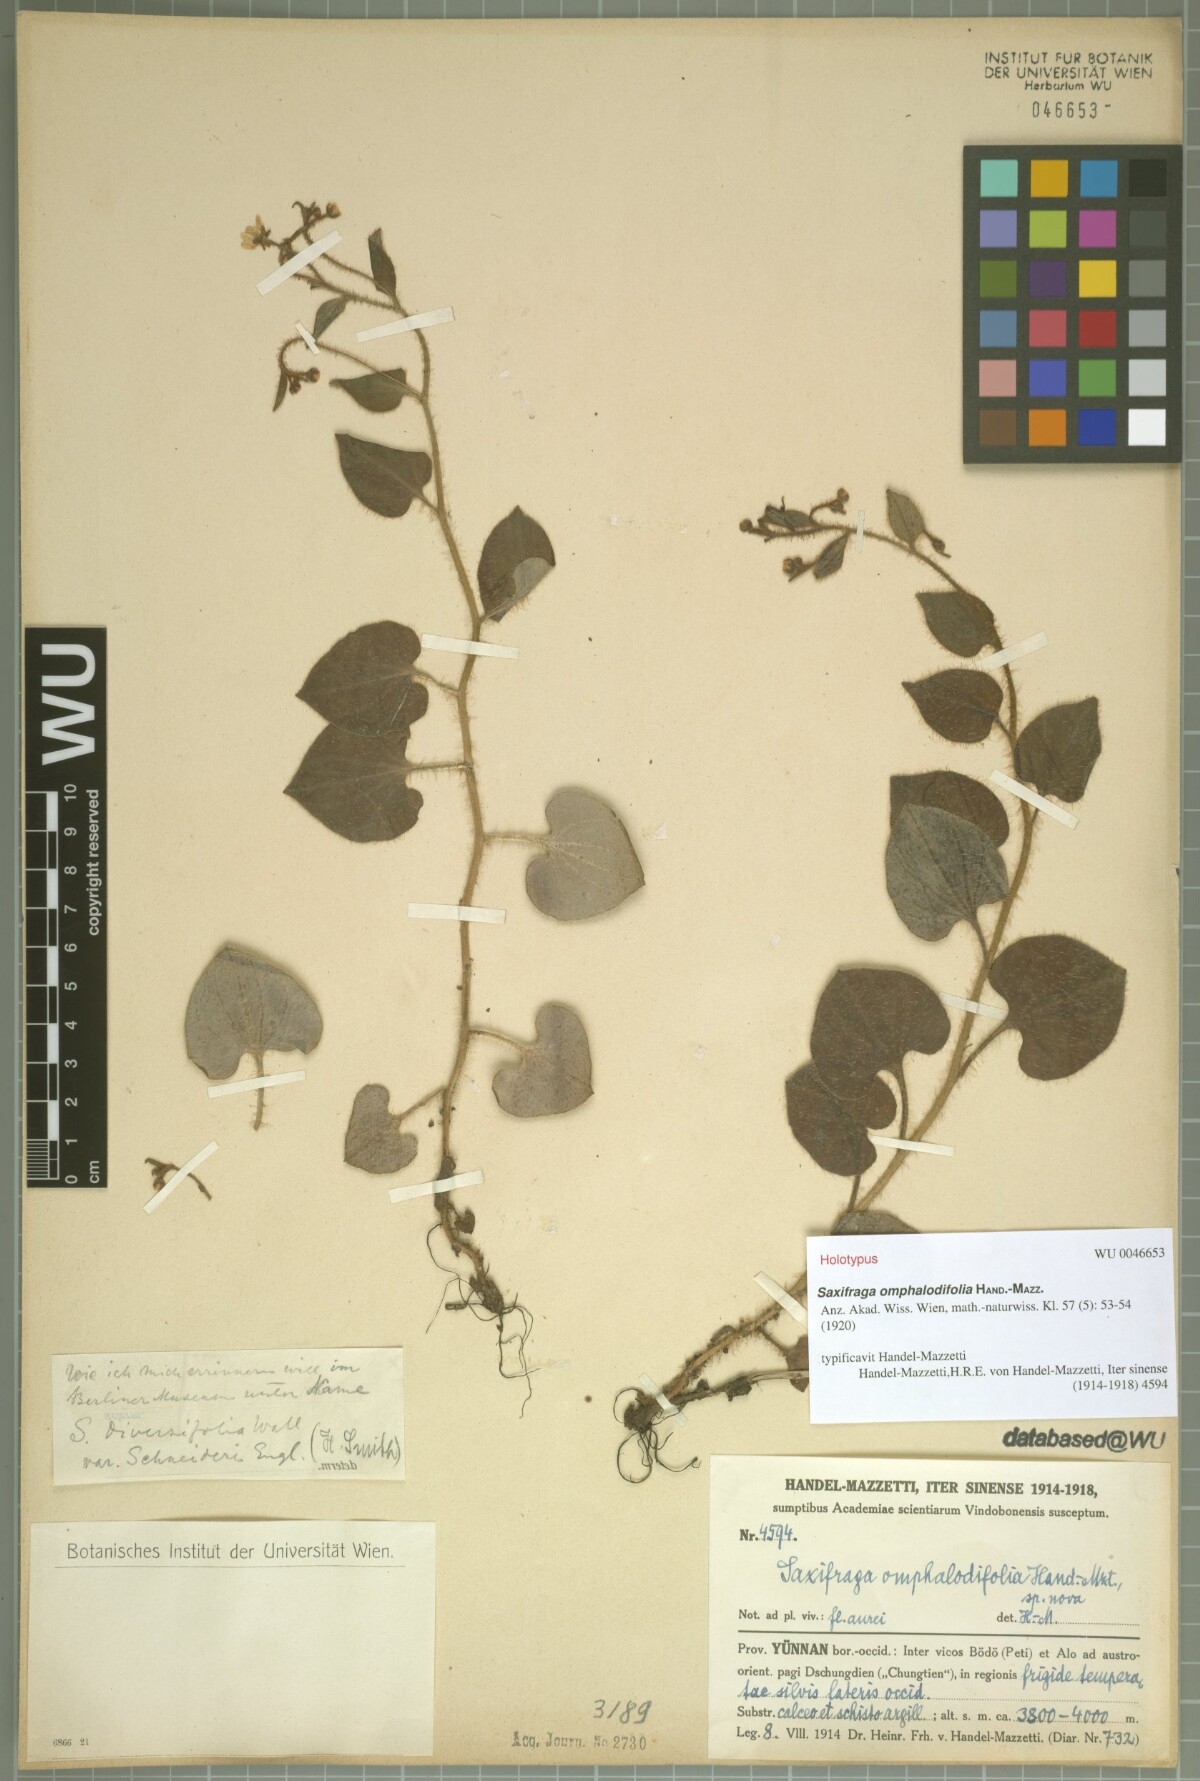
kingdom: Plantae
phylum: Tracheophyta
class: Magnoliopsida
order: Saxifragales
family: Saxifragaceae
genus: Saxifraga
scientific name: Saxifraga omphalodifolia
